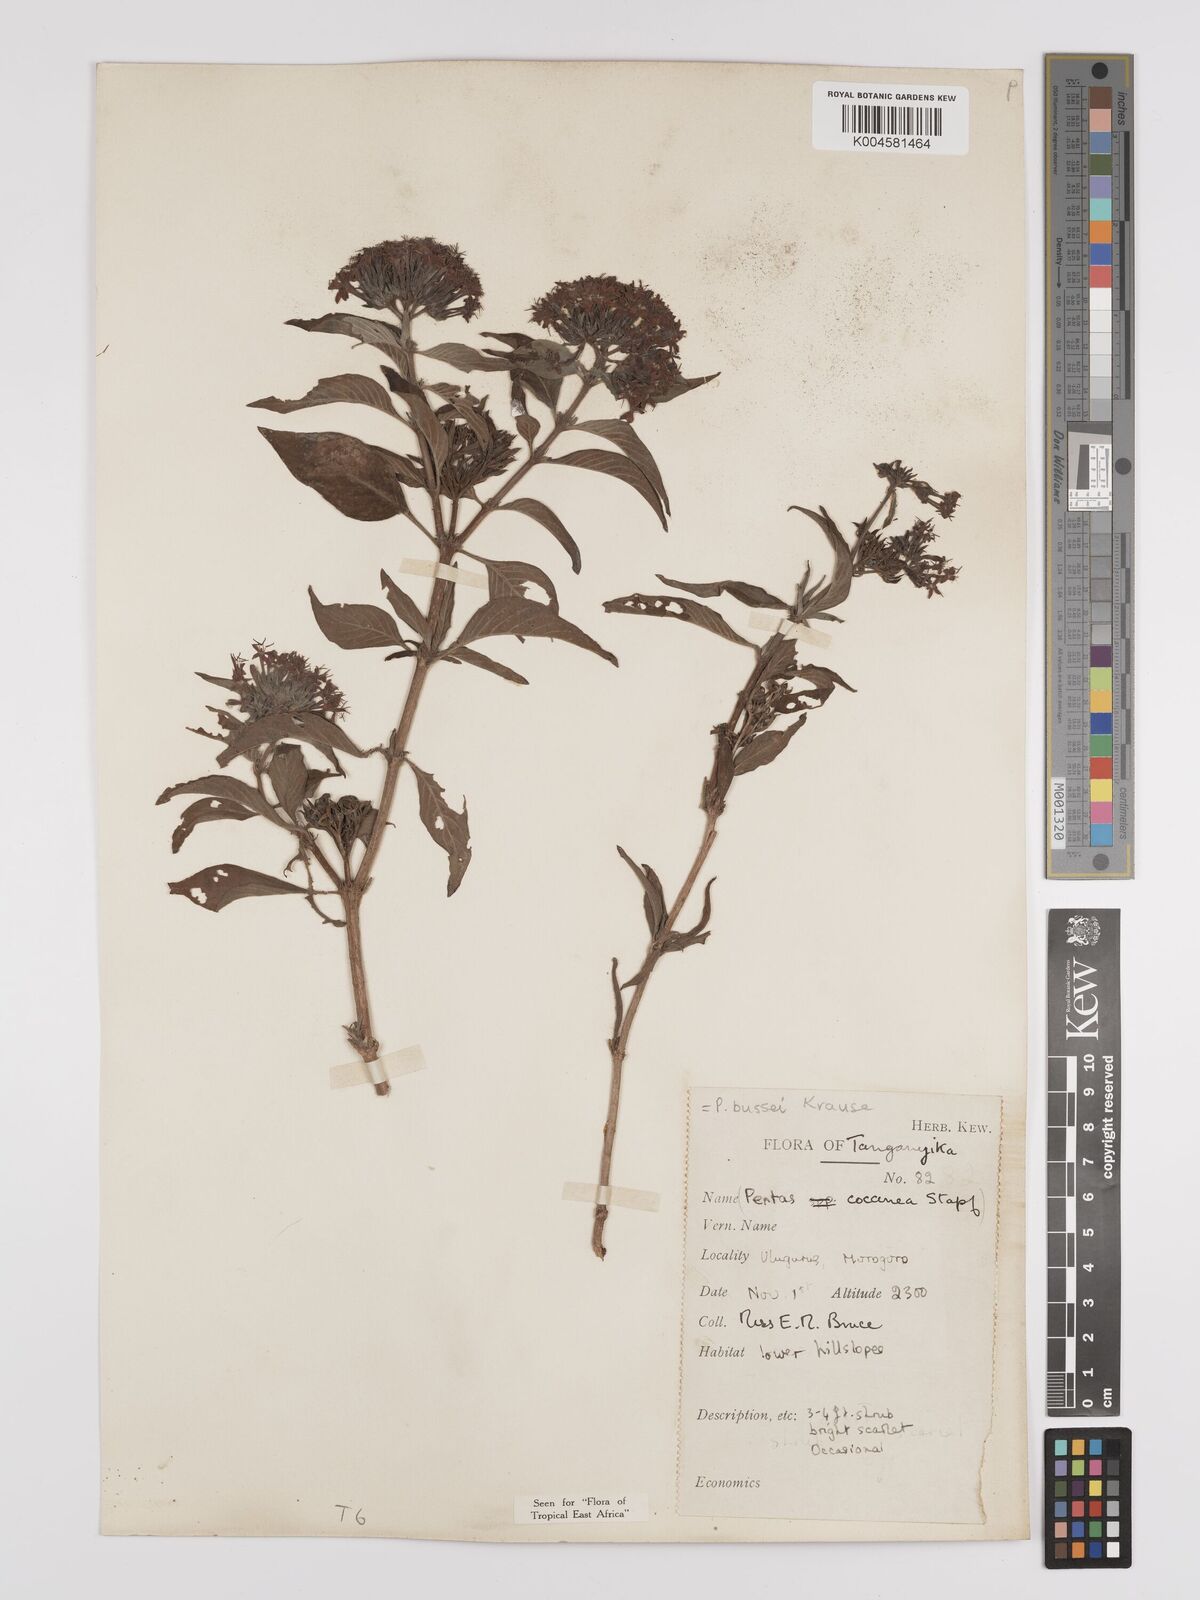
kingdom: Plantae
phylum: Tracheophyta
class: Magnoliopsida
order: Gentianales
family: Rubiaceae
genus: Rhodopentas
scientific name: Rhodopentas bussei
